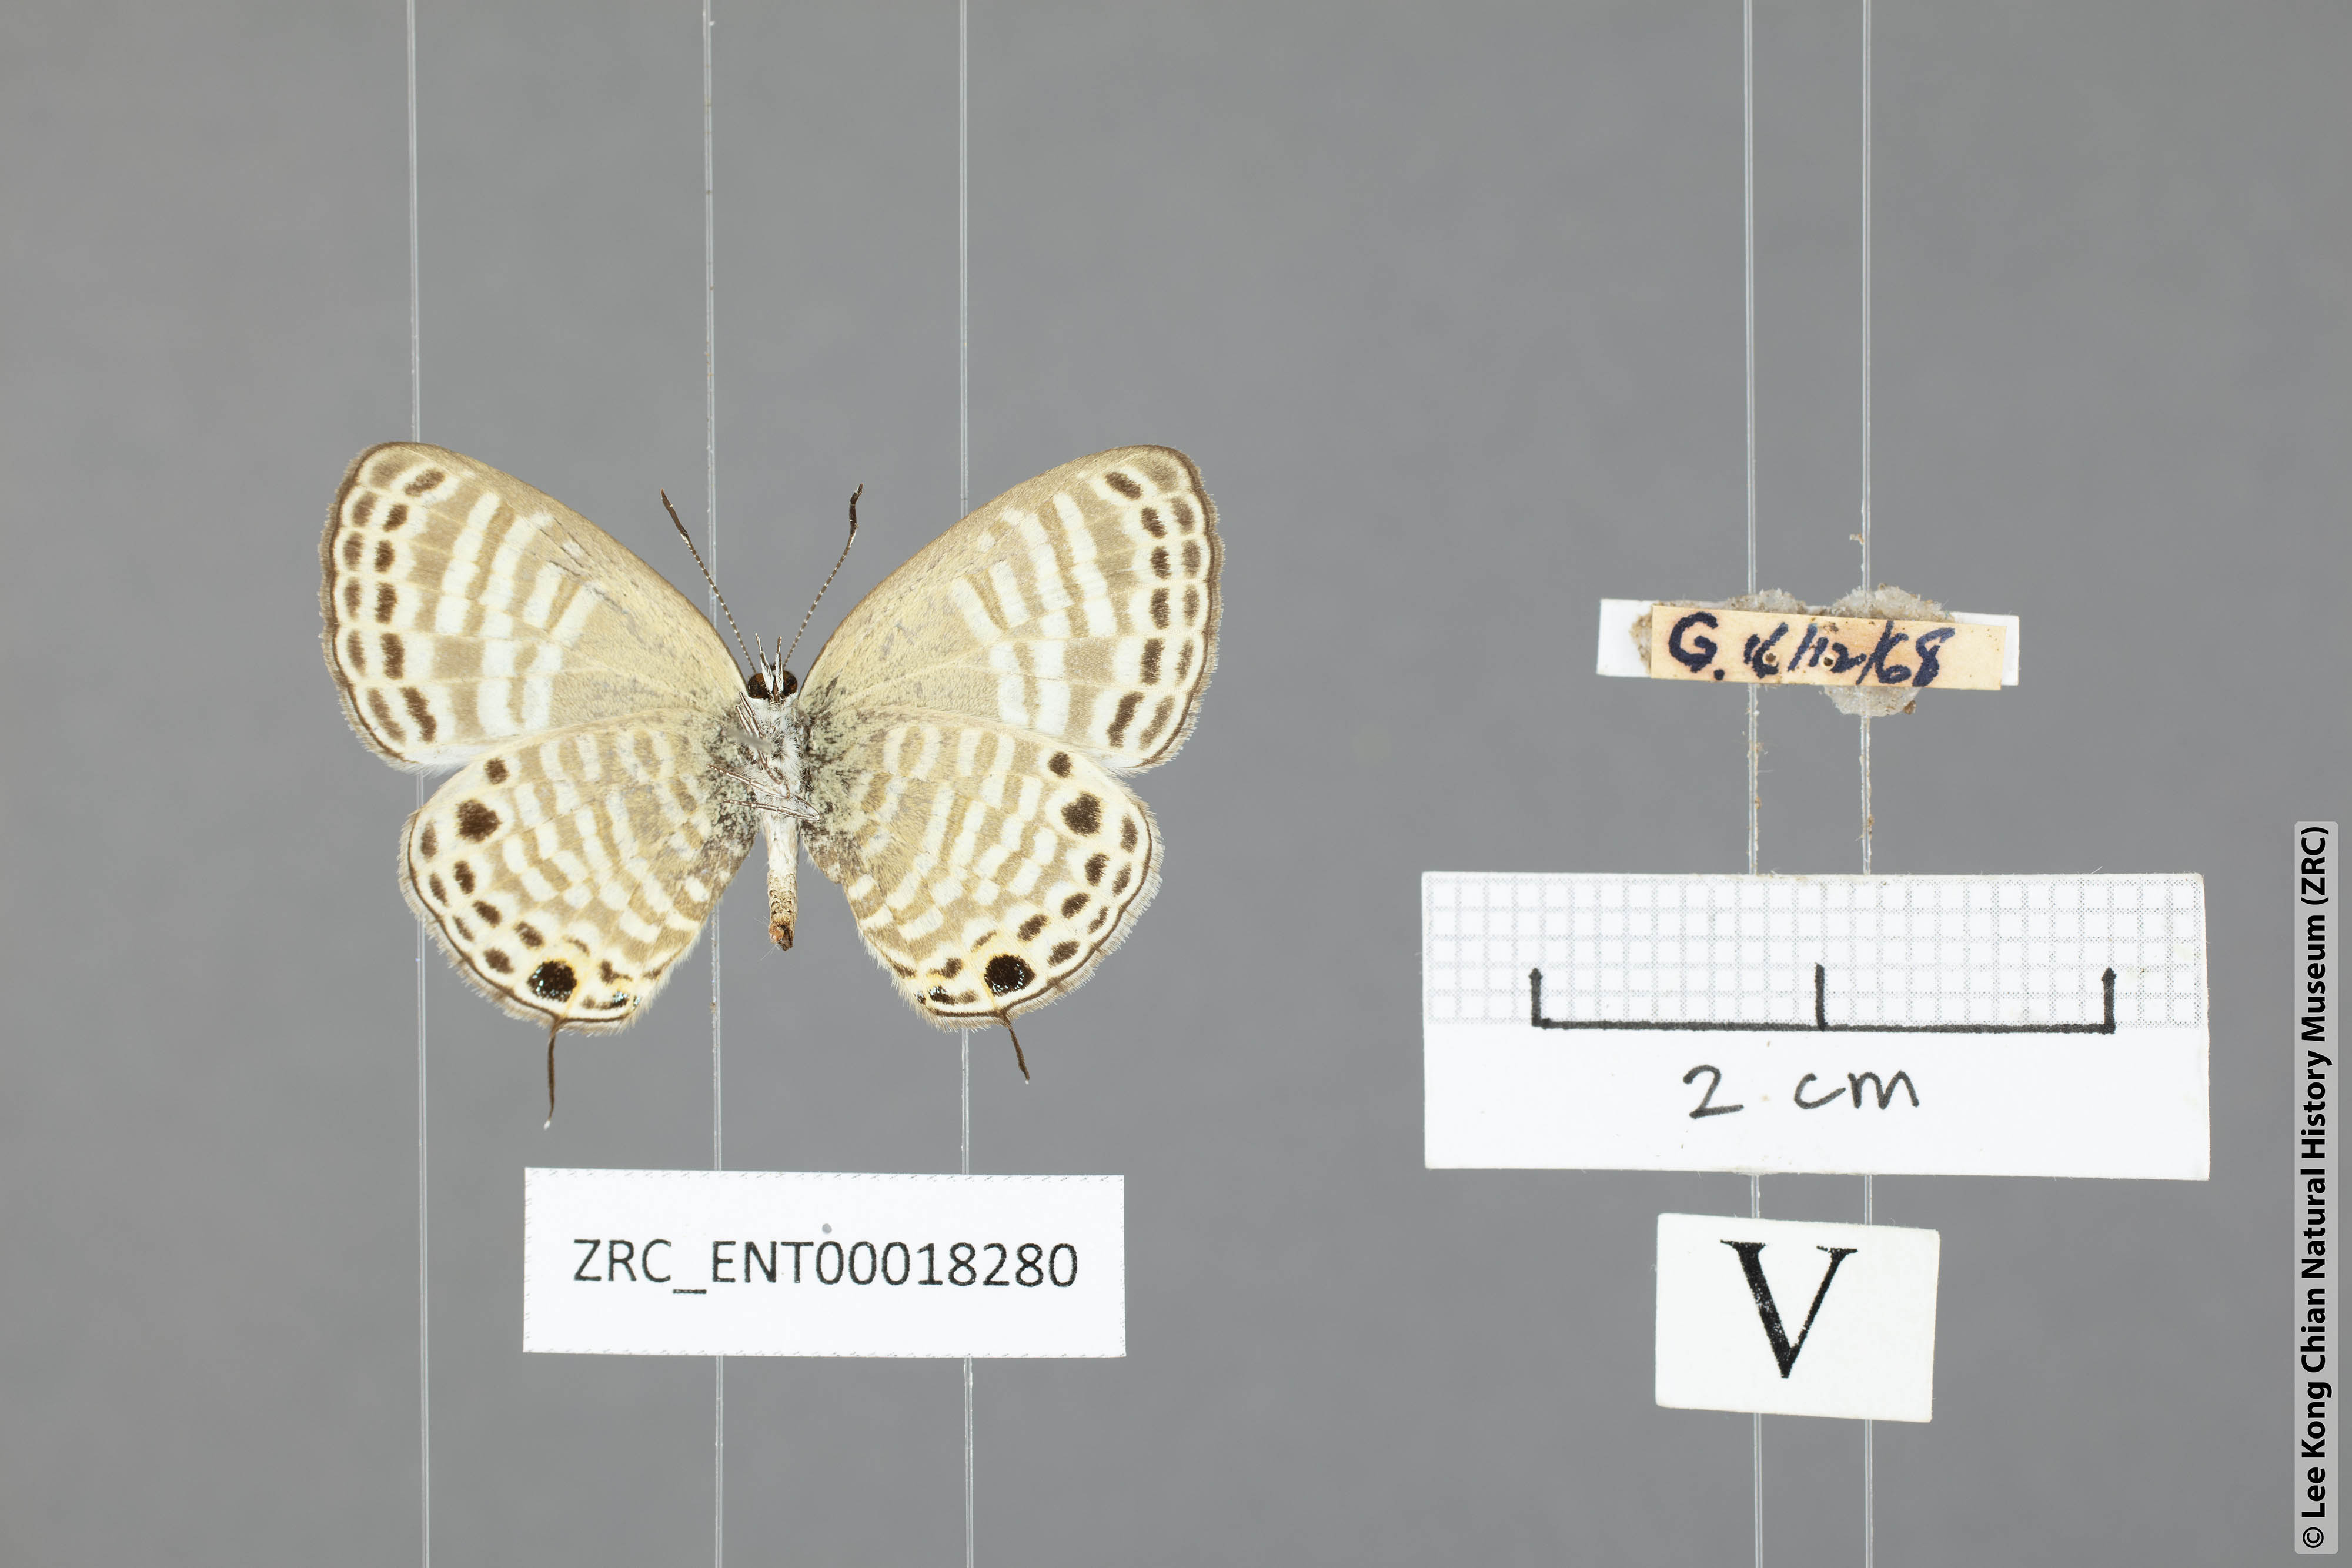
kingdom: Animalia
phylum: Arthropoda
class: Insecta
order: Lepidoptera
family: Lycaenidae
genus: Nacaduba
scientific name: Nacaduba angusta
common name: White four-line blue
